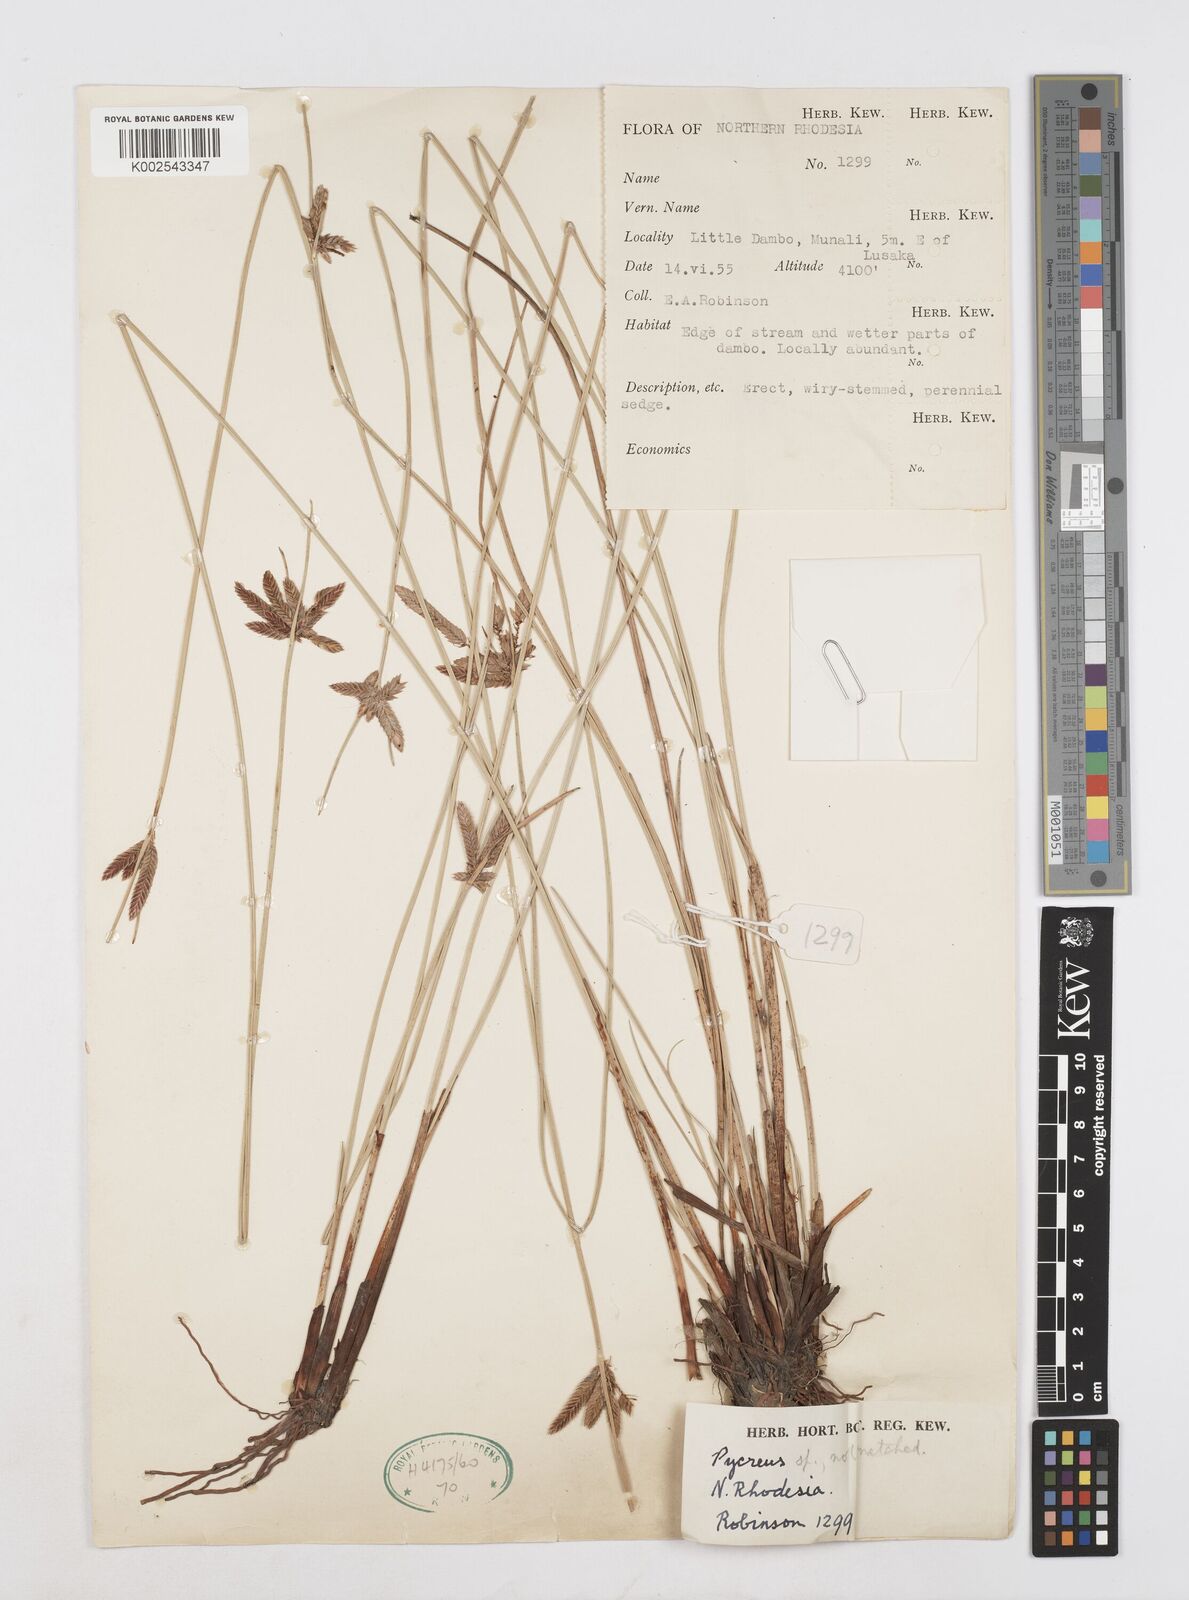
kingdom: Plantae
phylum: Tracheophyta
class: Liliopsida
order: Poales
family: Cyperaceae
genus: Cyperus
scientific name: Cyperus
